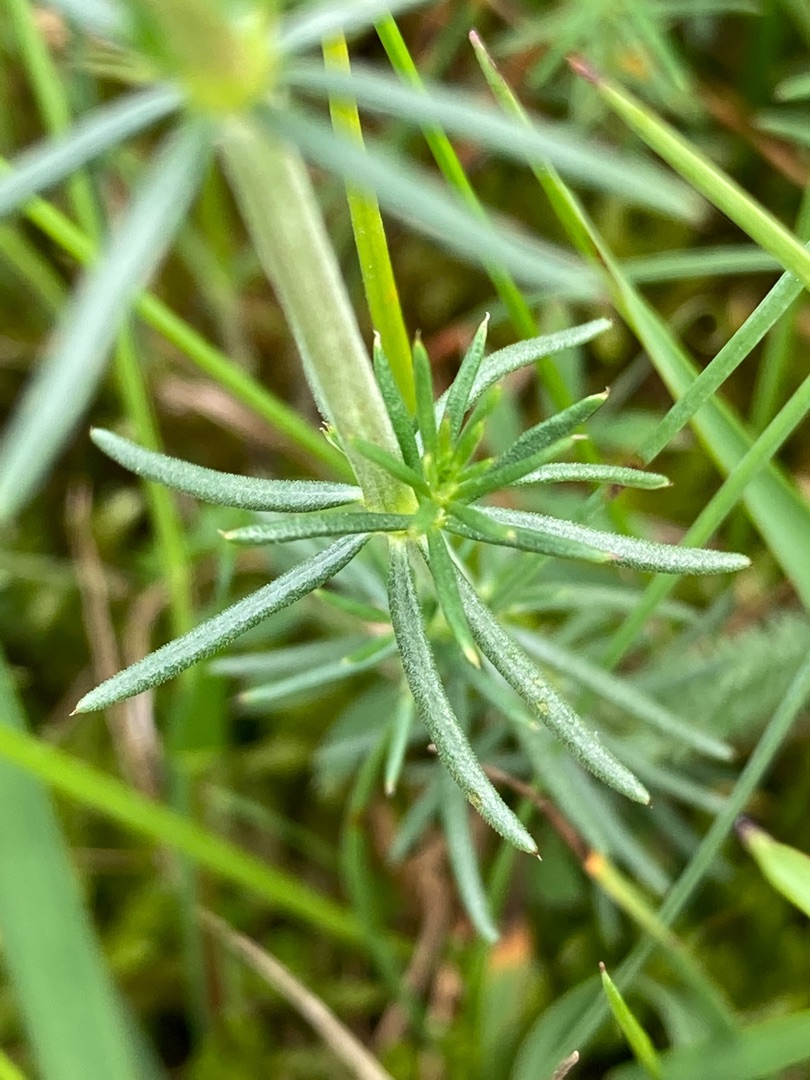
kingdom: Plantae
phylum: Tracheophyta
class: Magnoliopsida
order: Gentianales
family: Rubiaceae
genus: Galium
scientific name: Galium verum
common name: Gul snerre
